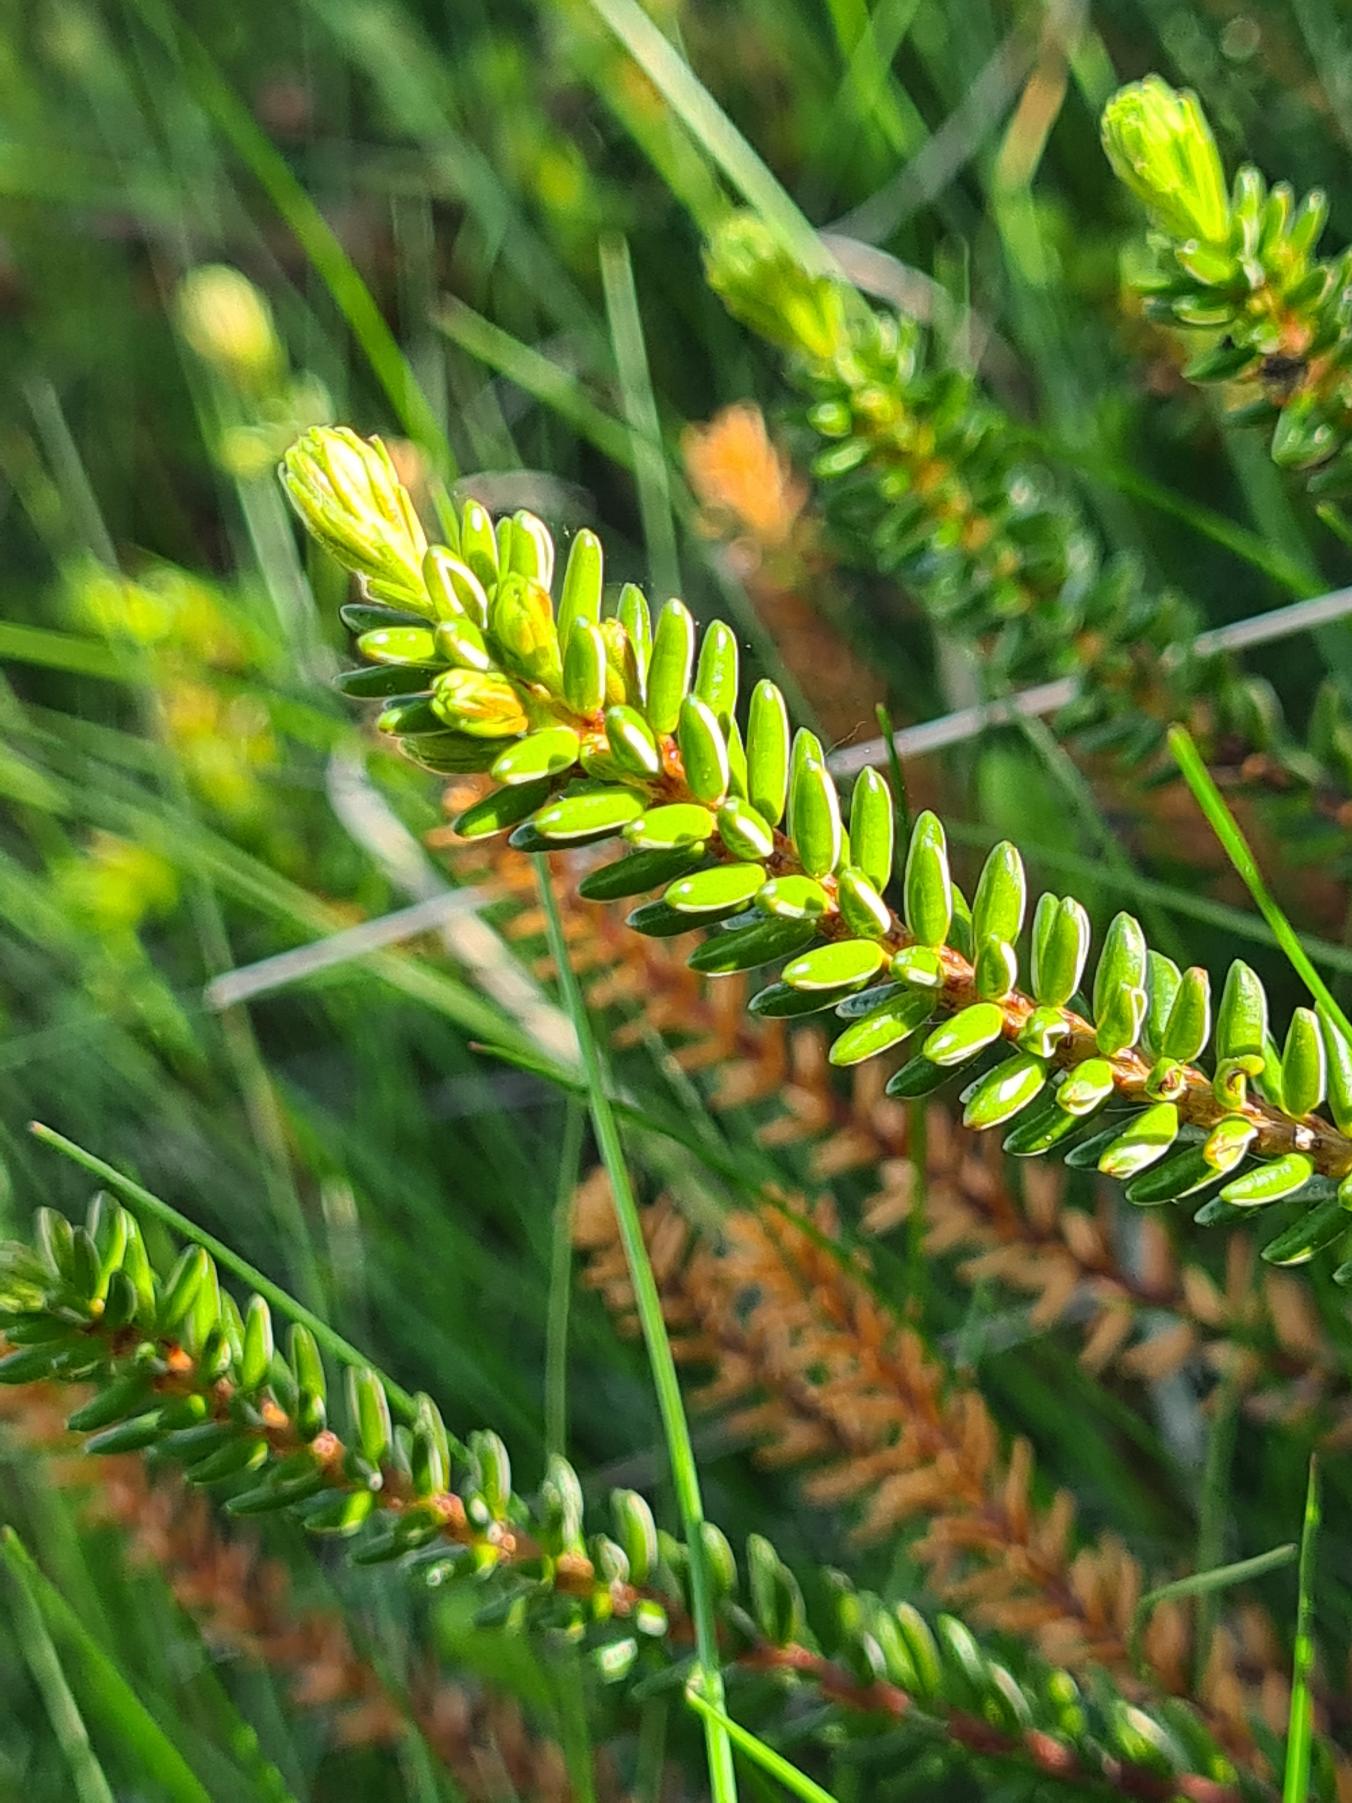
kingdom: Plantae
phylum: Tracheophyta
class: Magnoliopsida
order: Ericales
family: Ericaceae
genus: Empetrum
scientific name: Empetrum nigrum
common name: Revling
